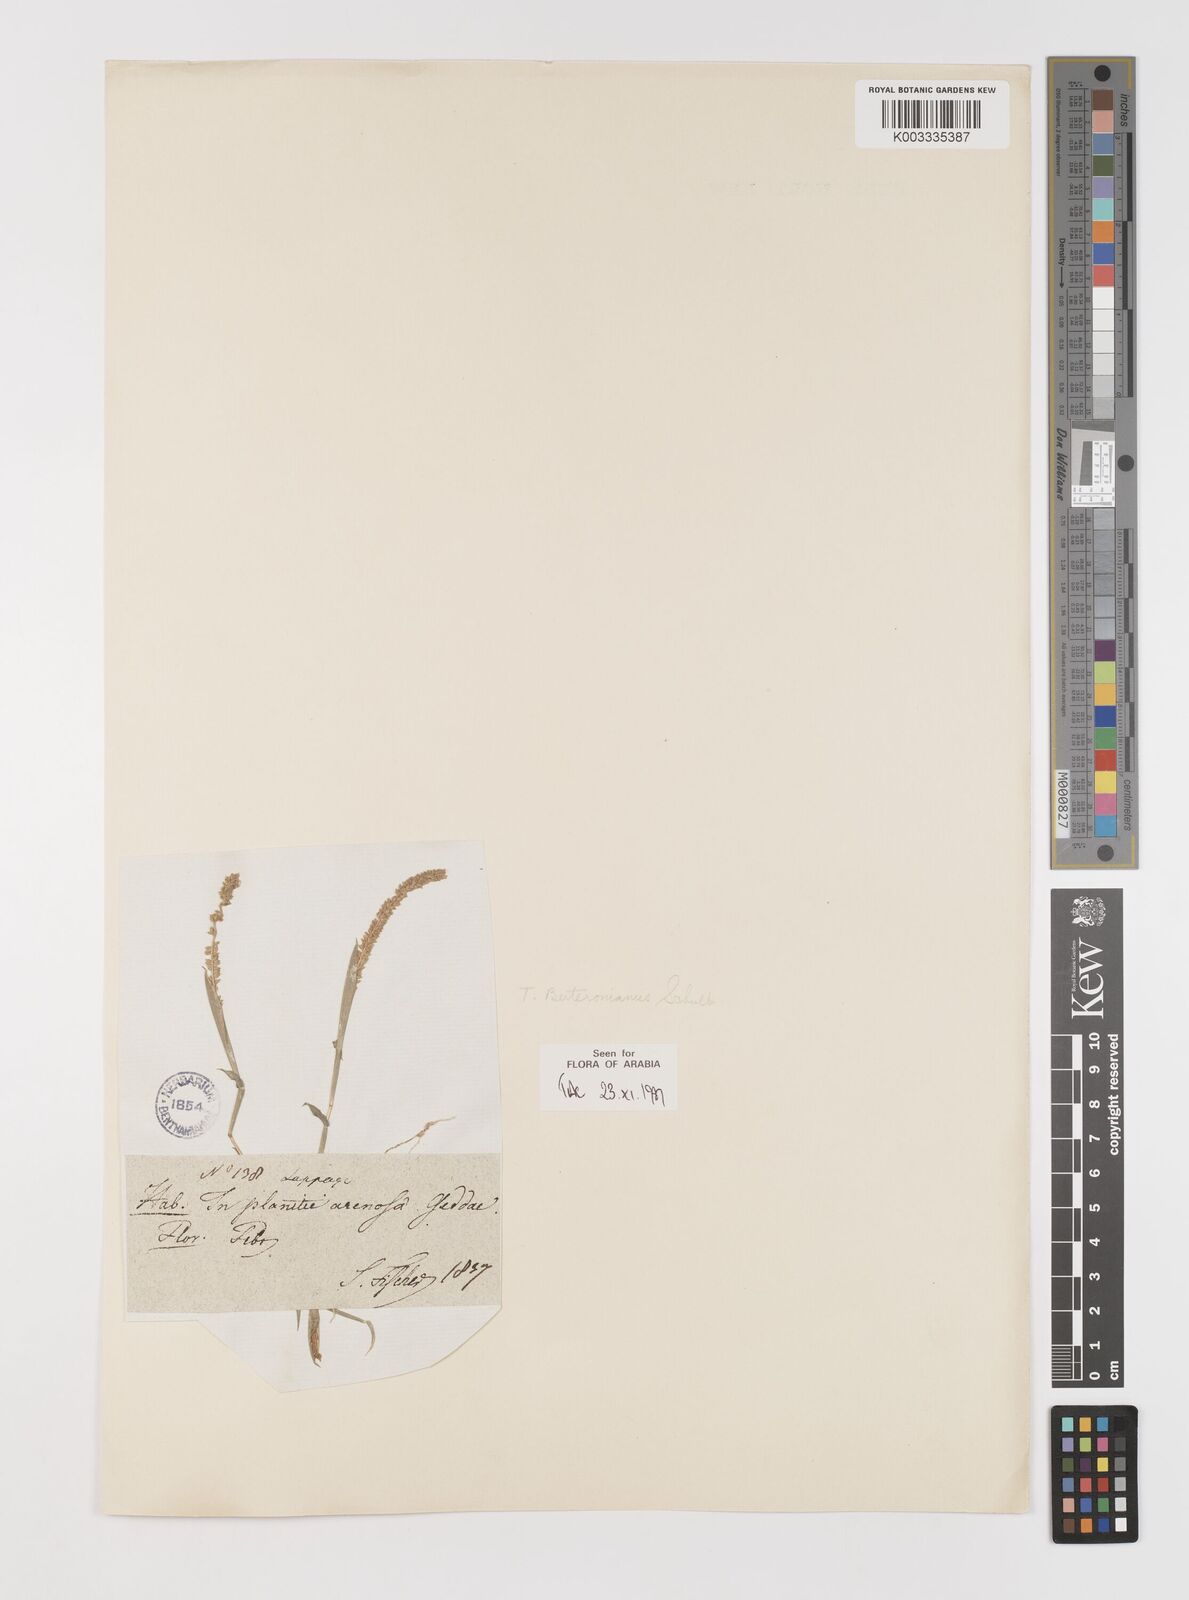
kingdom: Plantae
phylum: Tracheophyta
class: Liliopsida
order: Poales
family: Poaceae
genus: Tragus
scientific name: Tragus berteronianus
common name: African bur-grass
